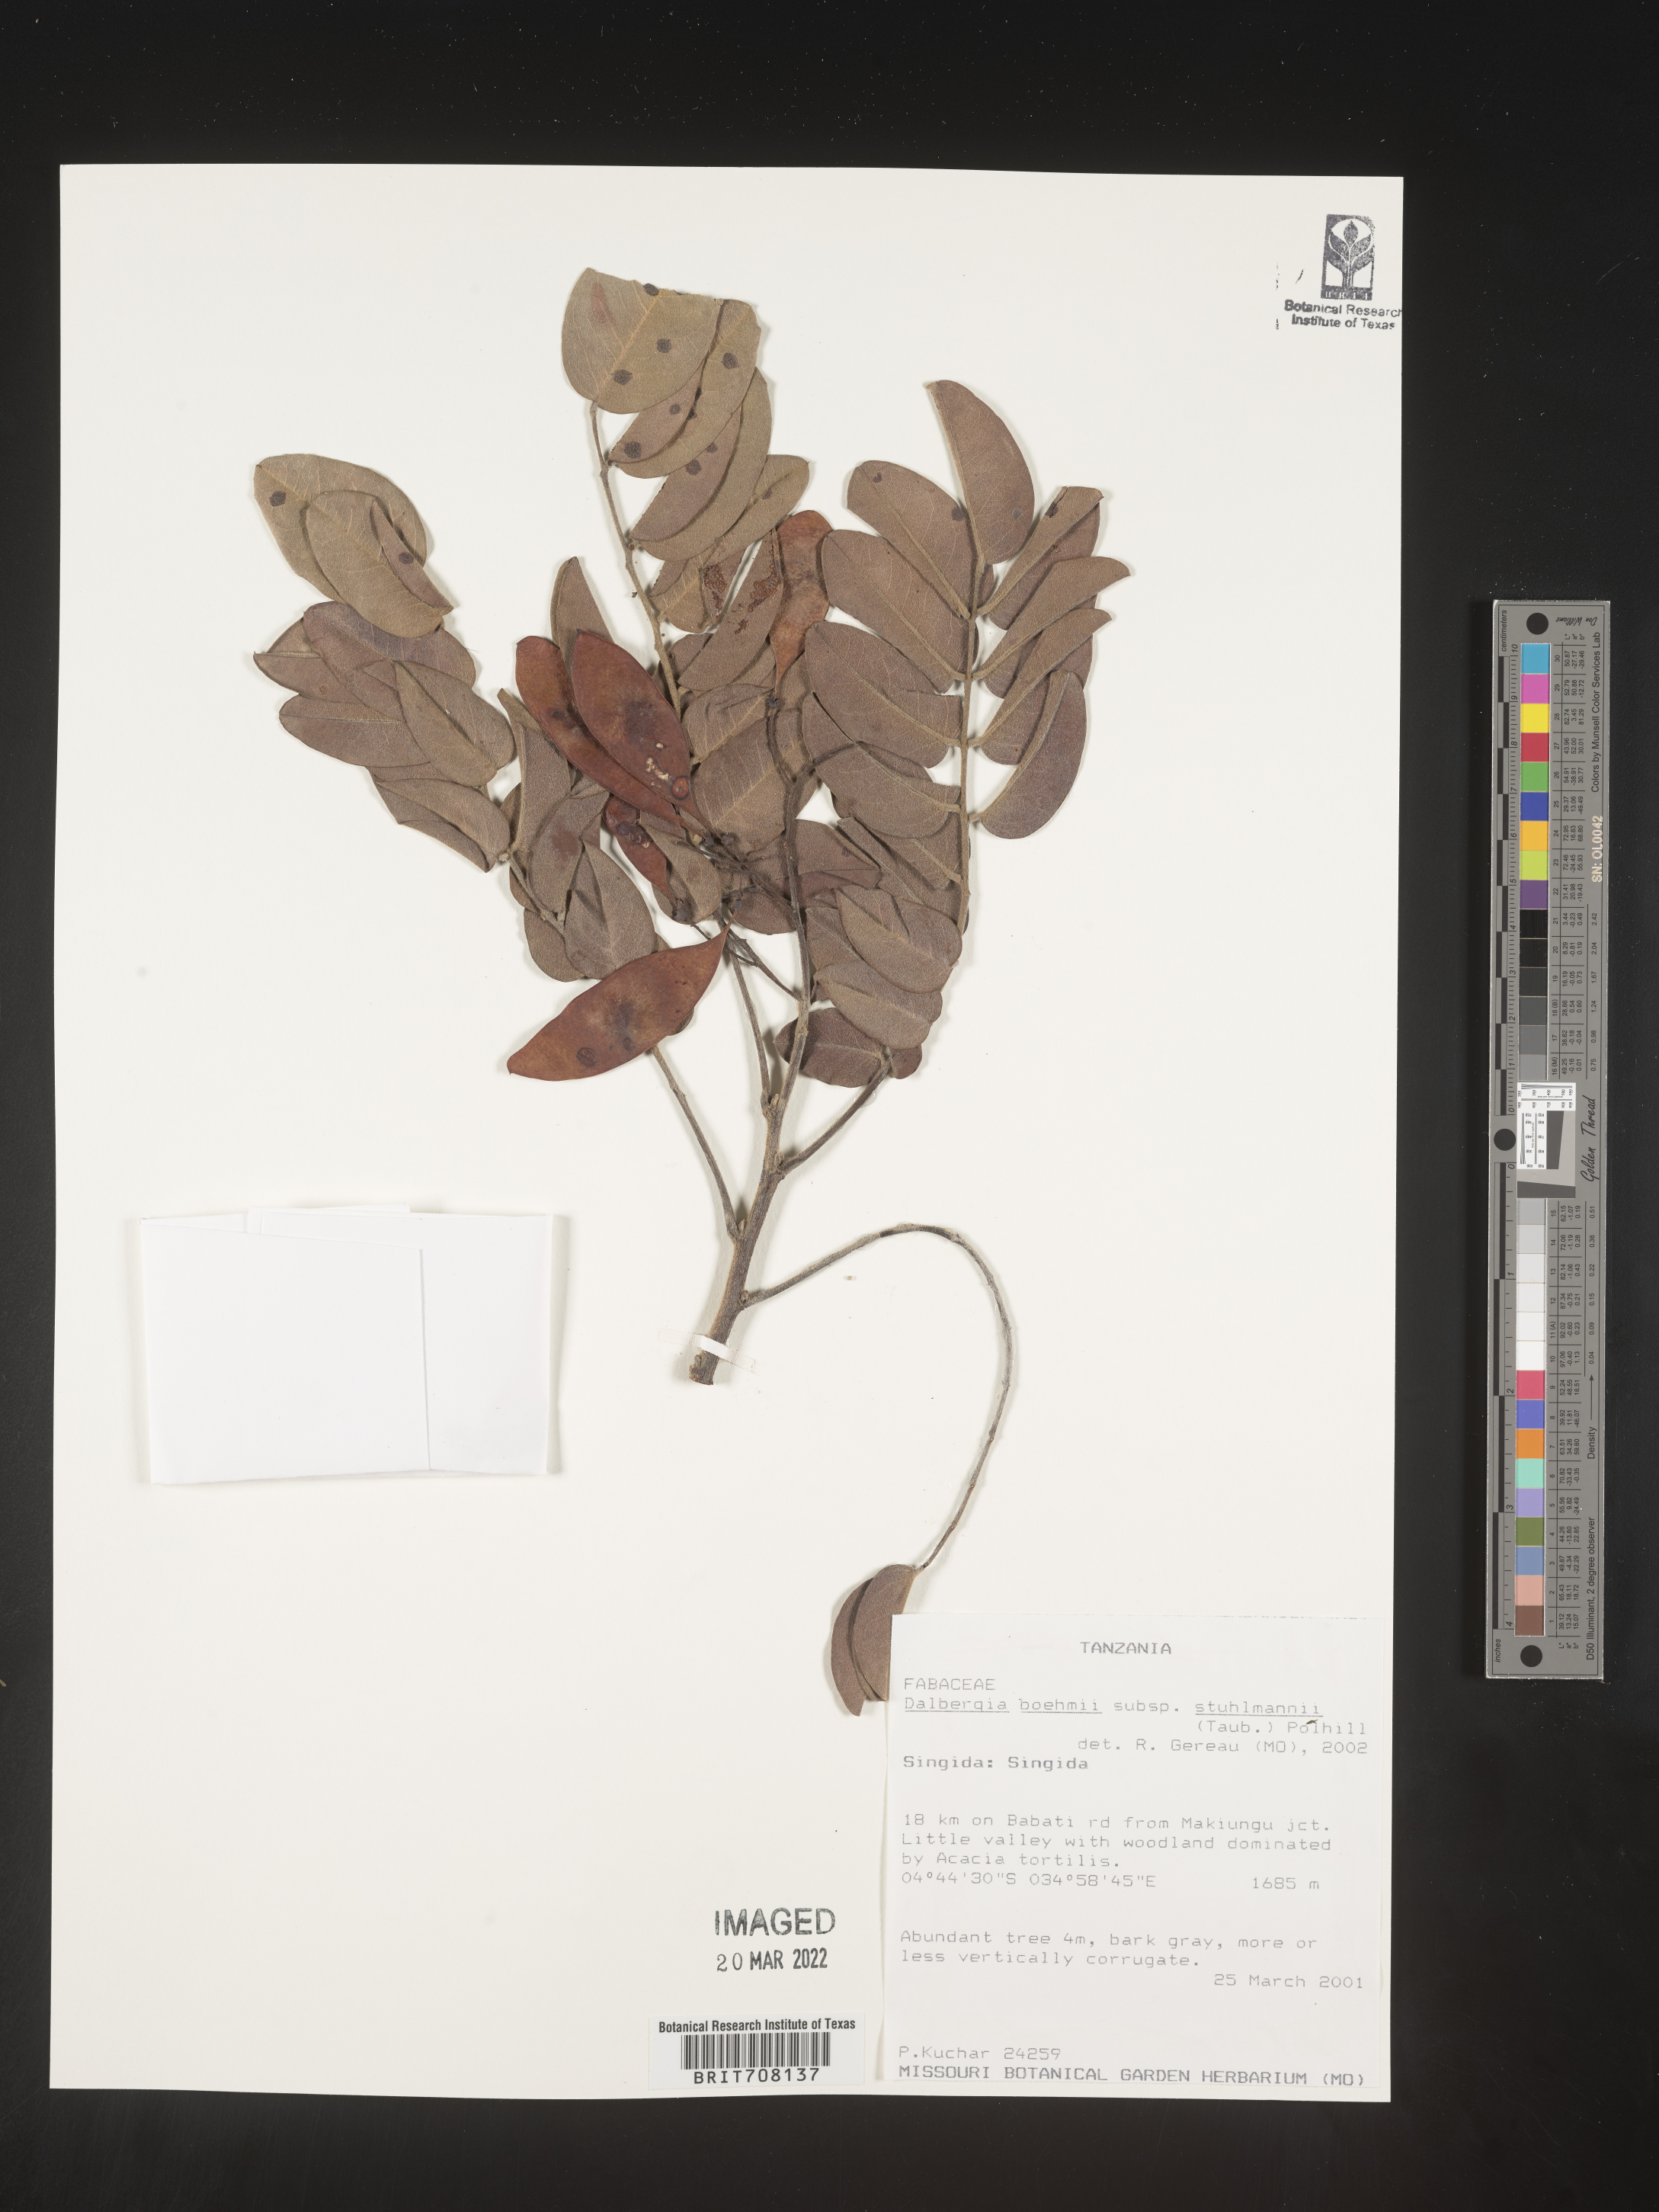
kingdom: Plantae
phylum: Tracheophyta
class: Magnoliopsida
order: Fabales
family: Fabaceae
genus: Dalbergia
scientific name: Dalbergia
